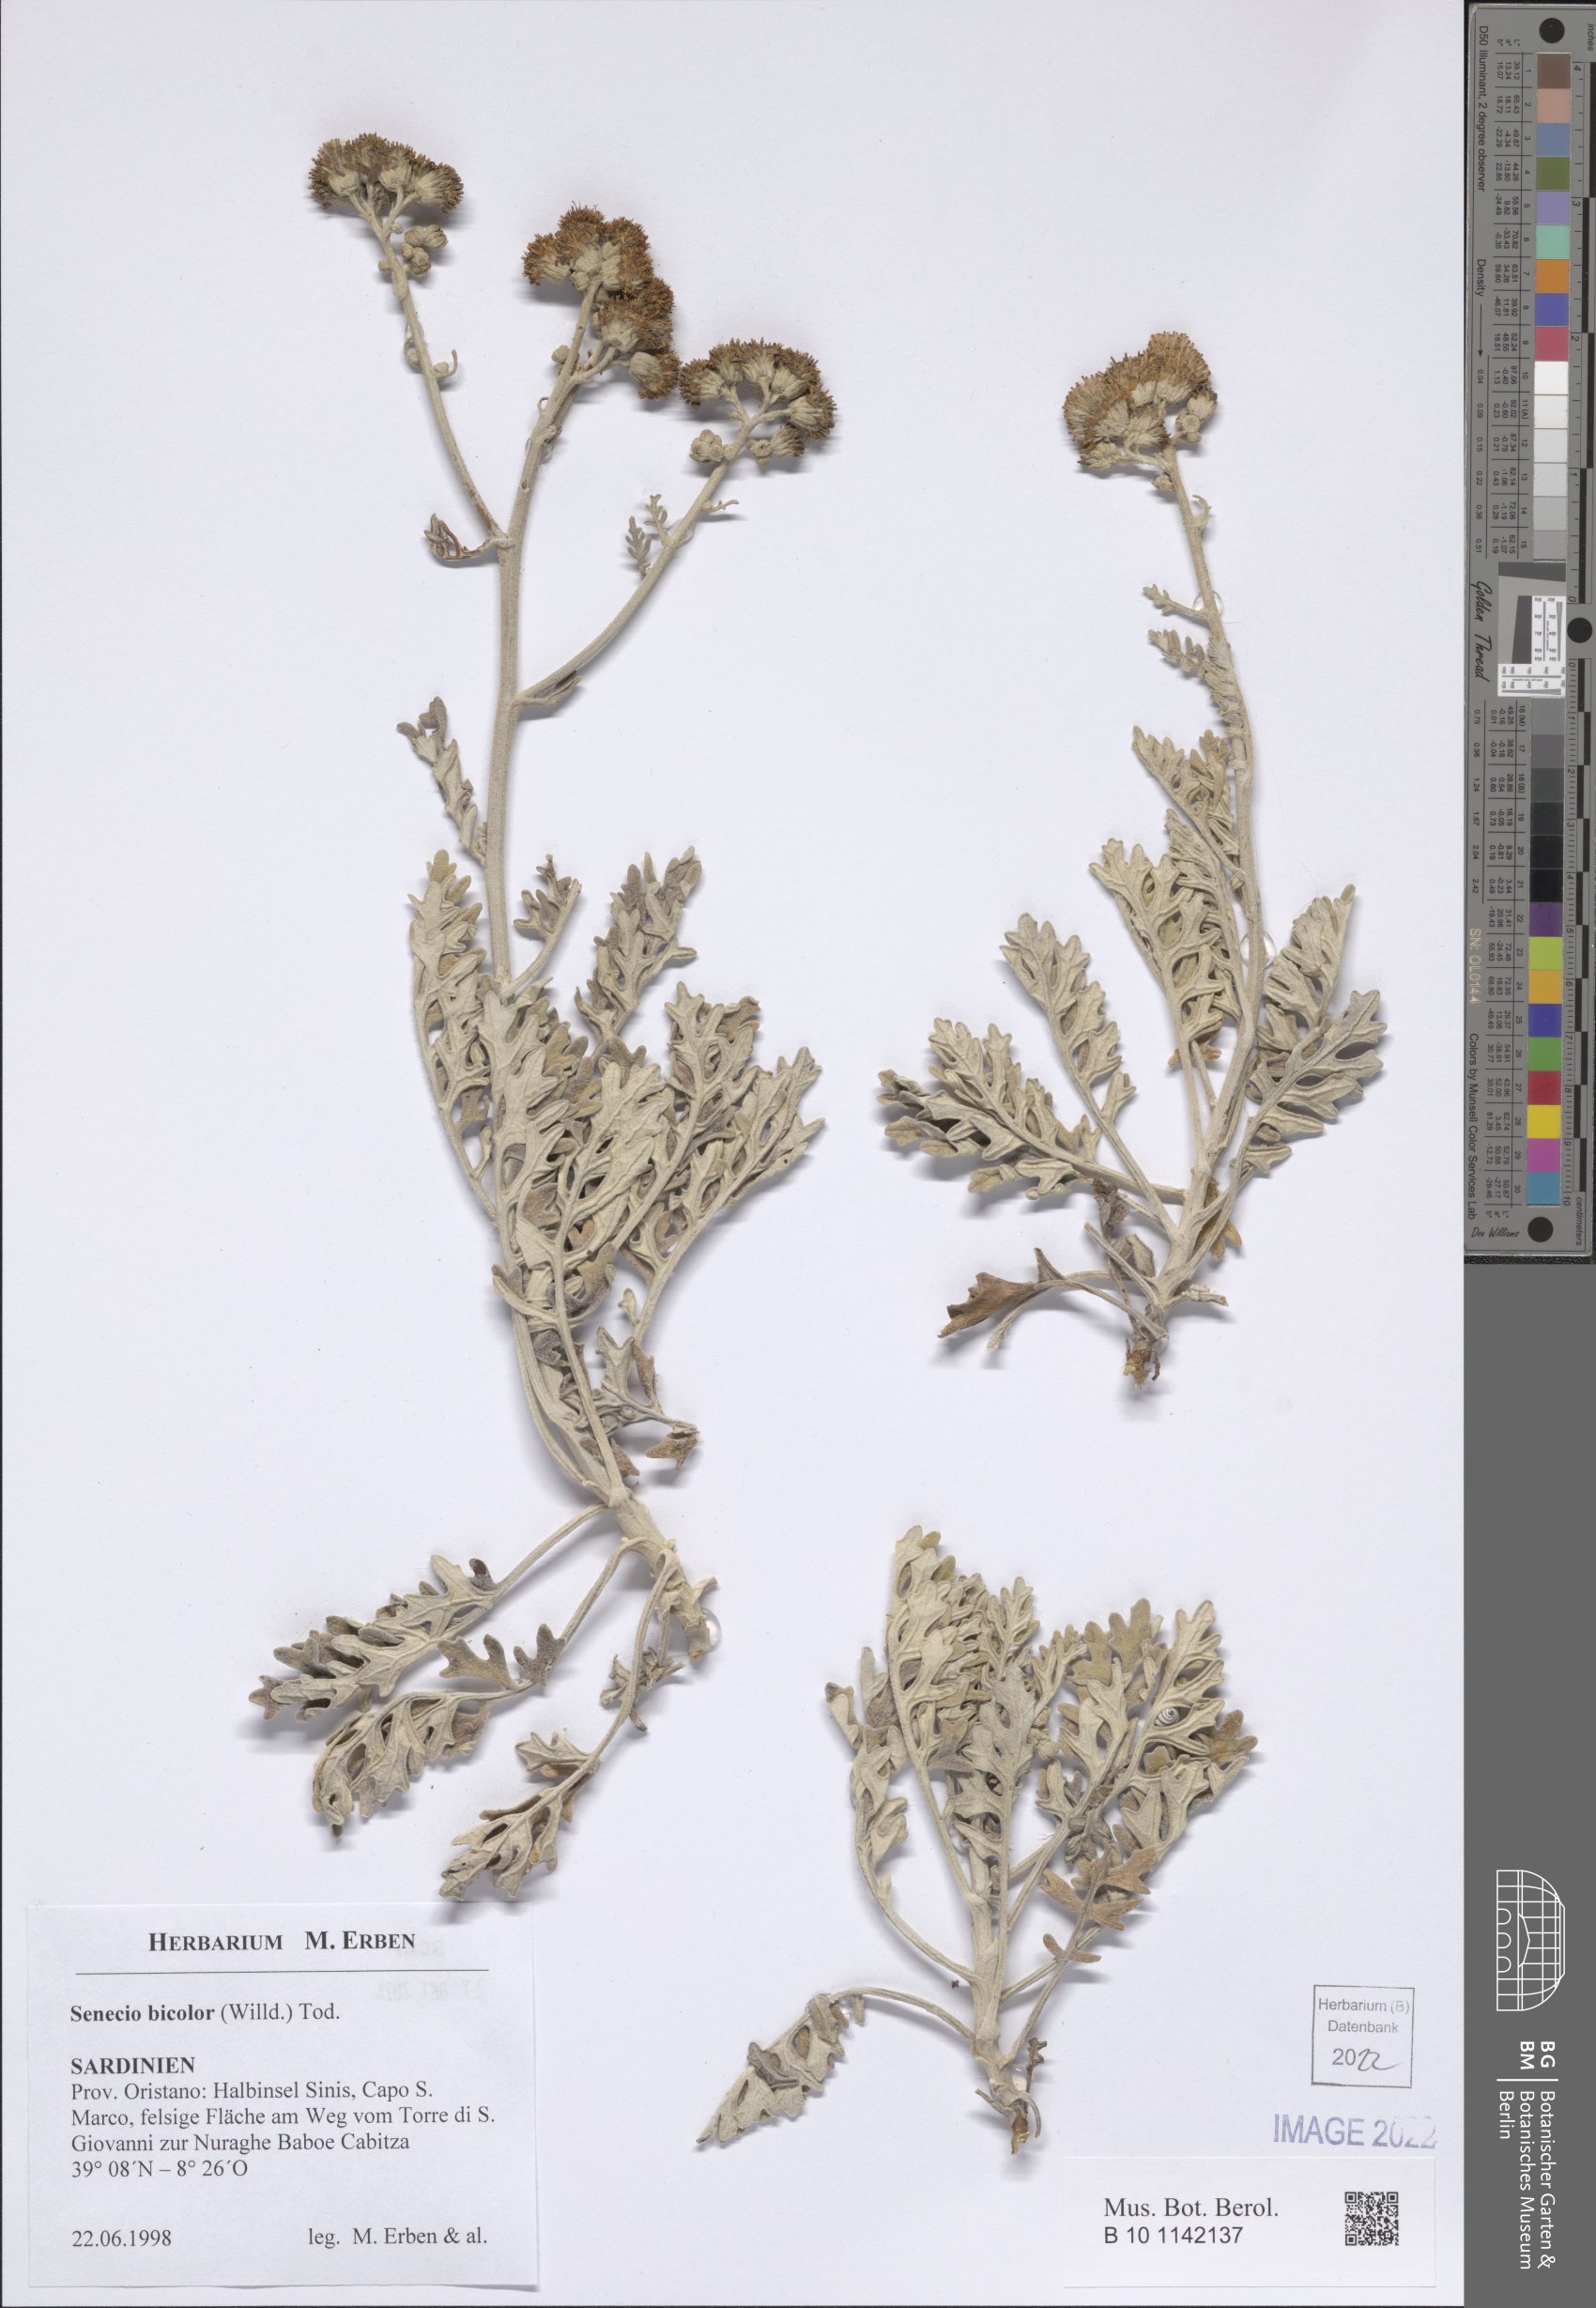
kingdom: Plantae
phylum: Tracheophyta
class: Magnoliopsida
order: Asterales
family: Asteraceae
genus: Jacobaea
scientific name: Jacobaea maritima
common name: Silver ragwort
